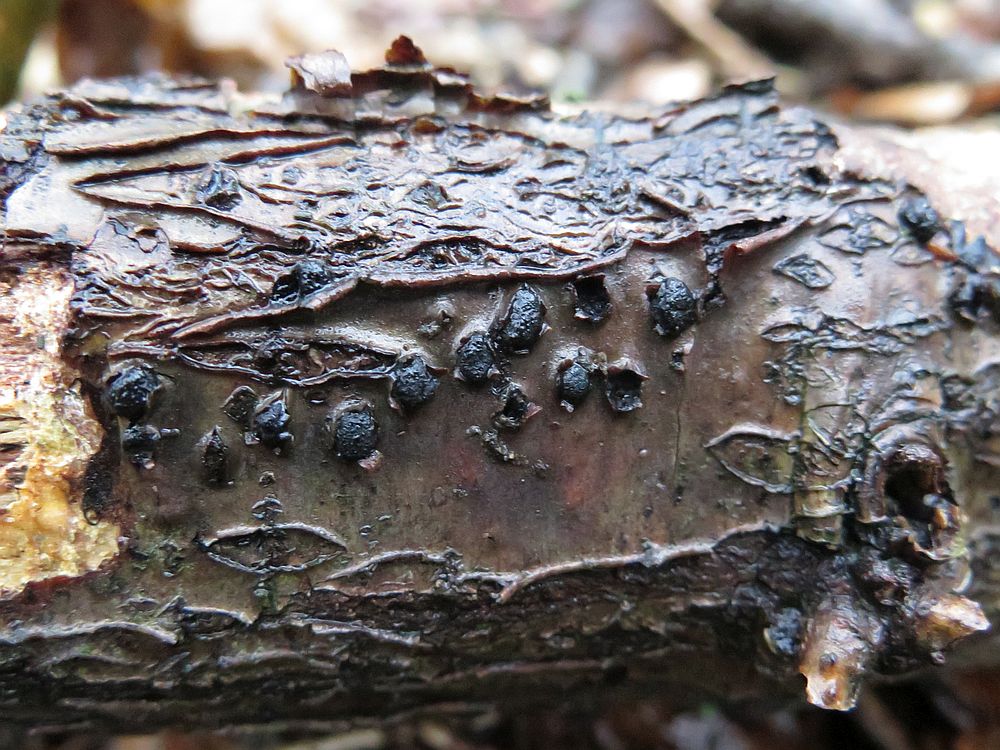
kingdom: Fungi
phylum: Ascomycota
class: Sordariomycetes
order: Xylariales
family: Diatrypaceae
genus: Diatrypella
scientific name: Diatrypella favacea
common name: klemt kulskorpe
